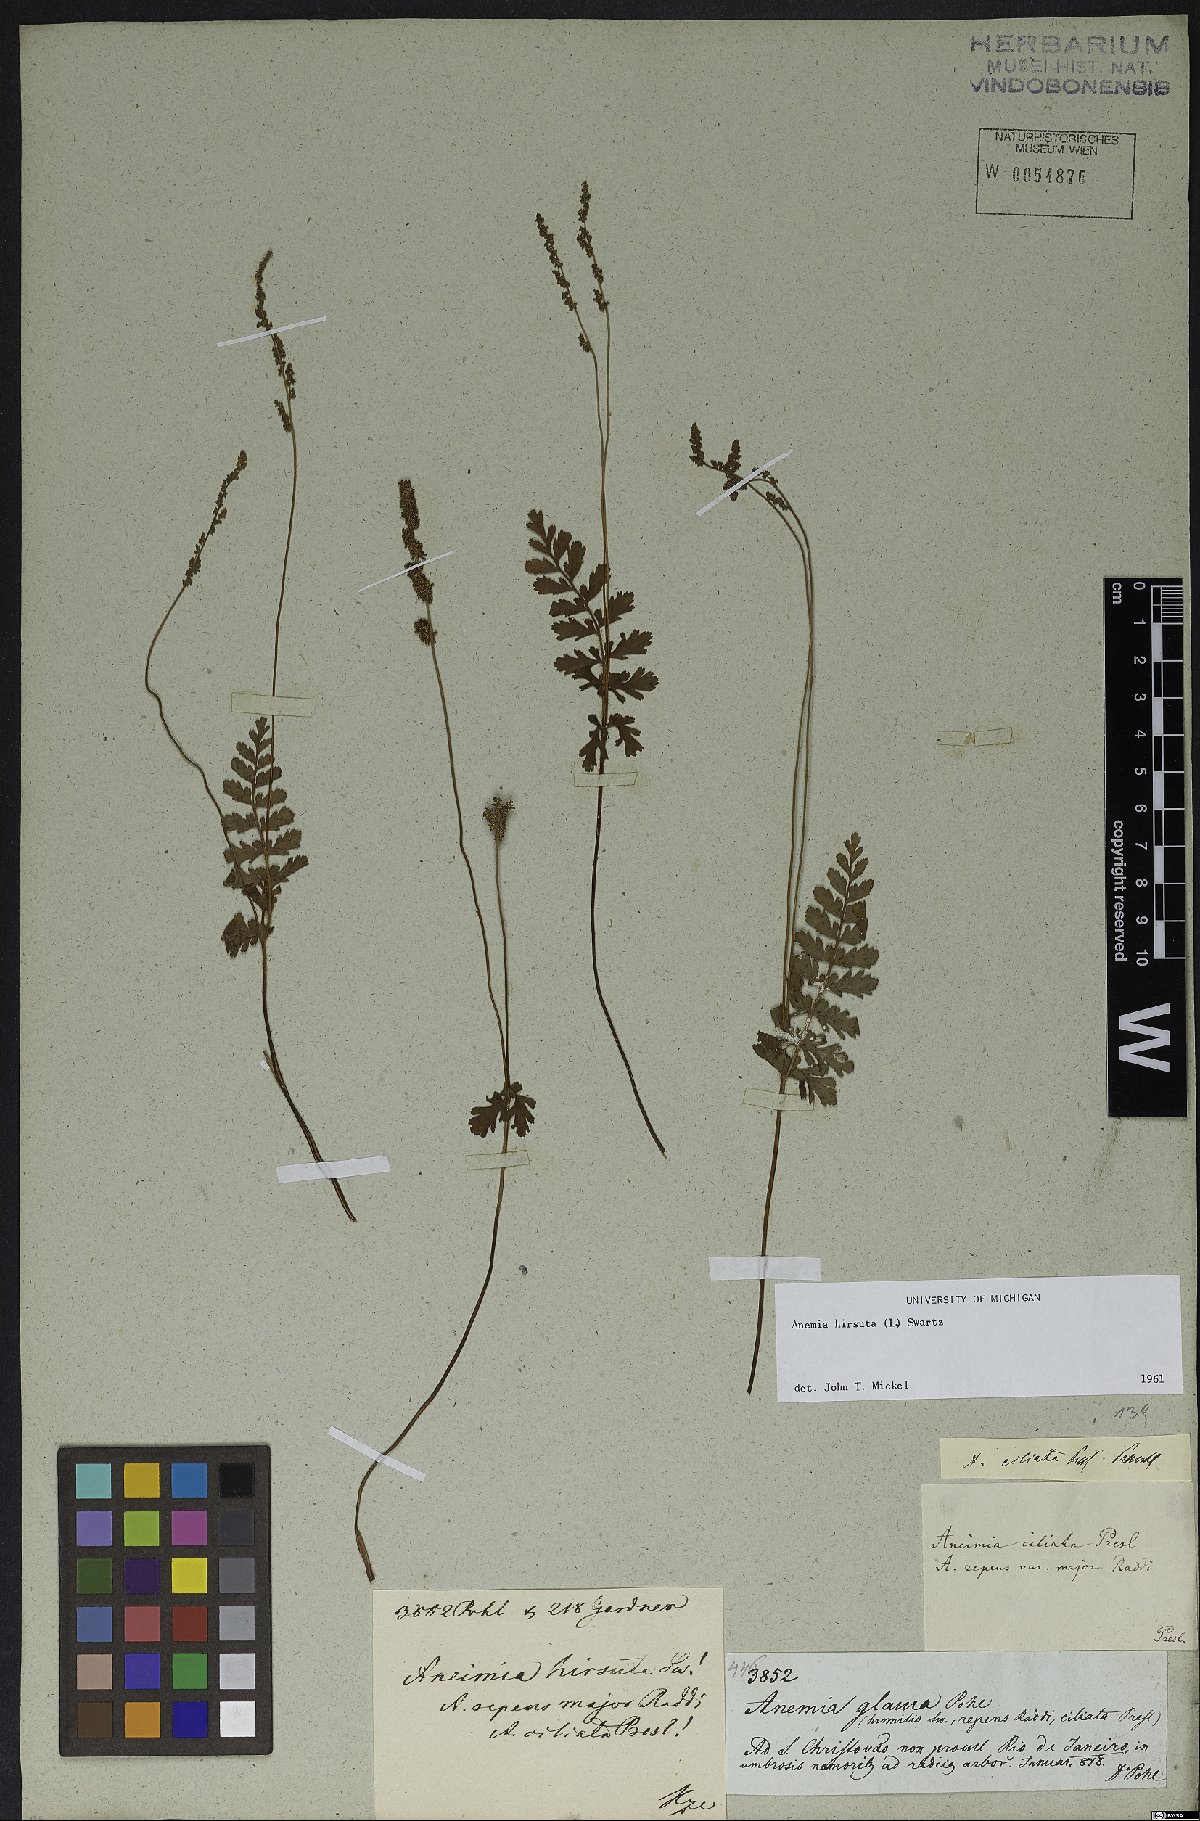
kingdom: Plantae
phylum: Tracheophyta
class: Polypodiopsida
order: Schizaeales
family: Anemiaceae
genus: Anemia
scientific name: Anemia hirsuta
